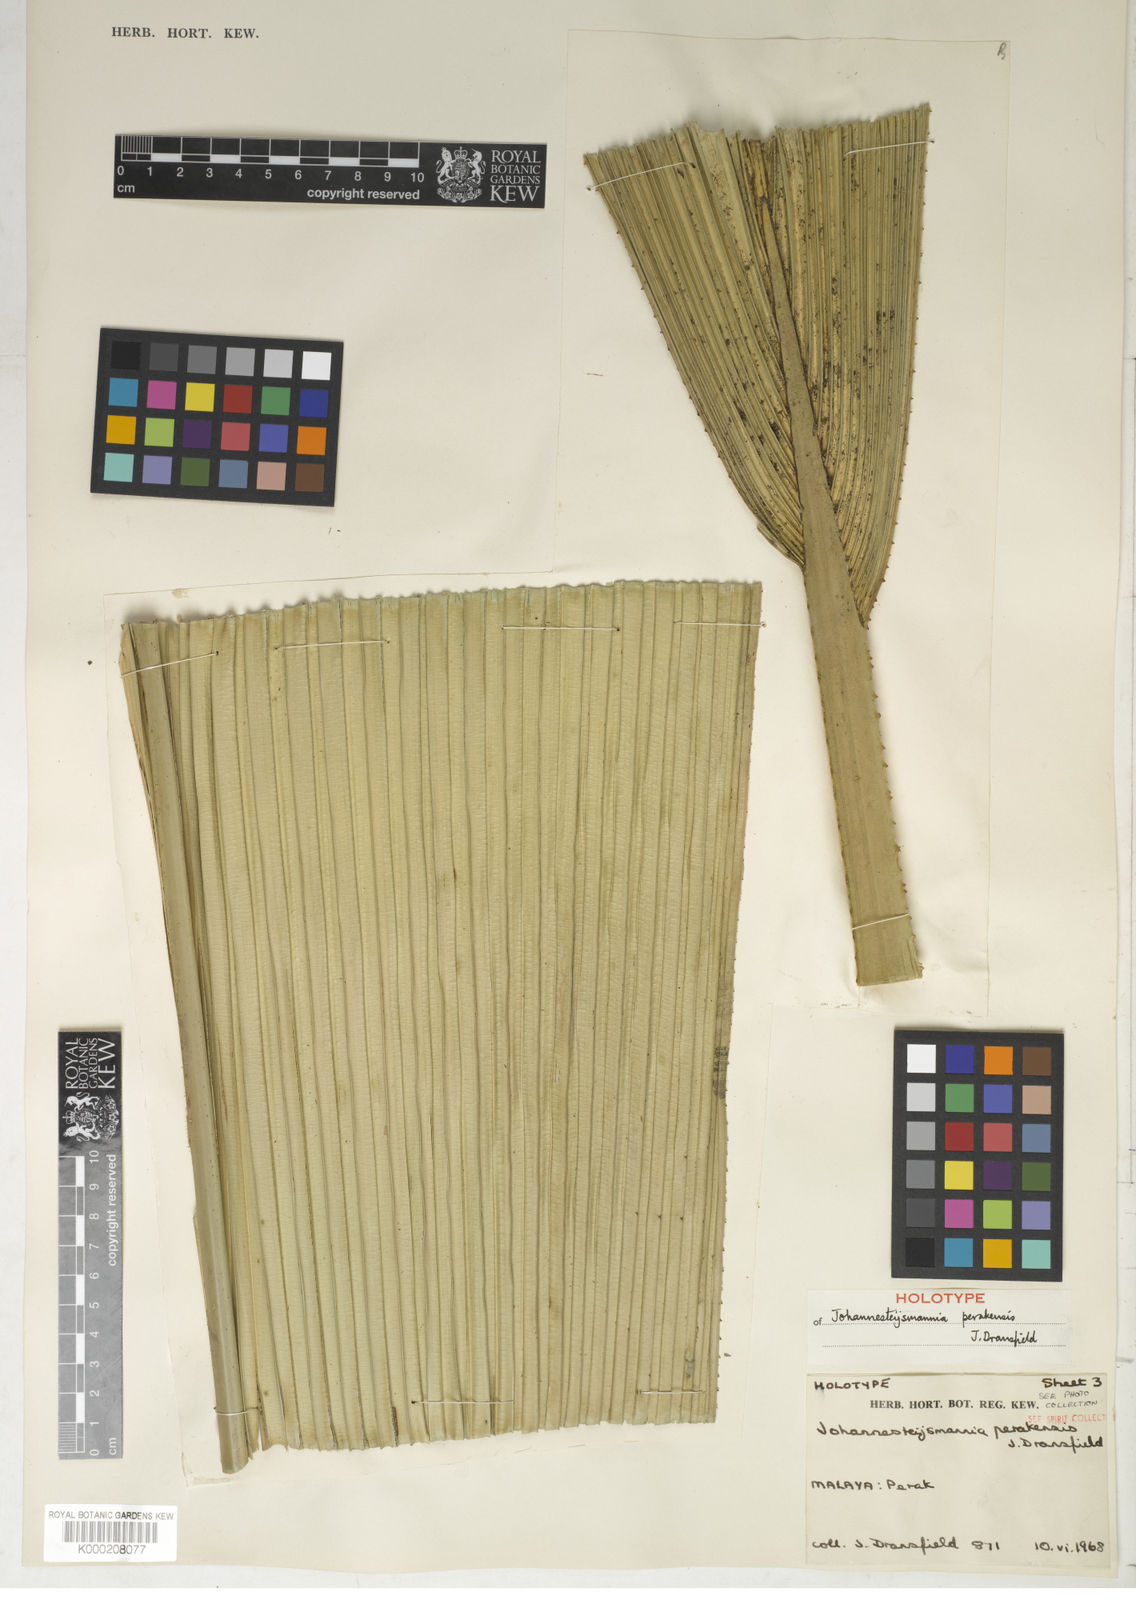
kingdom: Plantae
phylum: Tracheophyta
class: Liliopsida
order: Arecales
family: Arecaceae
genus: Johannesteijsmannia
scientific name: Johannesteijsmannia perakensis
